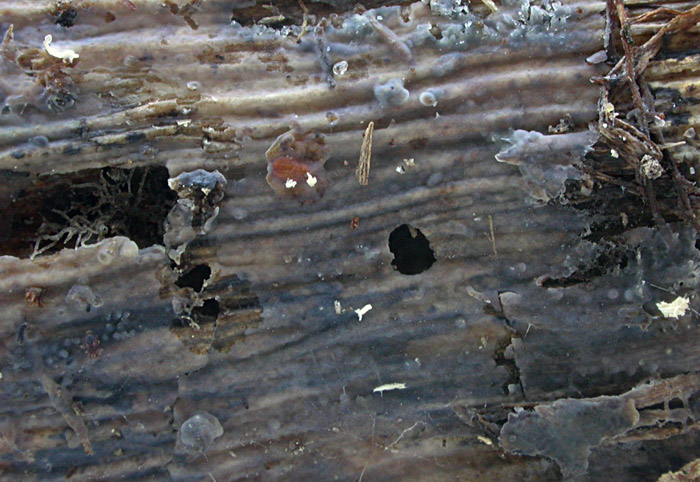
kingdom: Fungi
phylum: Basidiomycota
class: Agaricomycetes
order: Auriculariales
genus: Stypella
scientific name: Stypella grilletii
